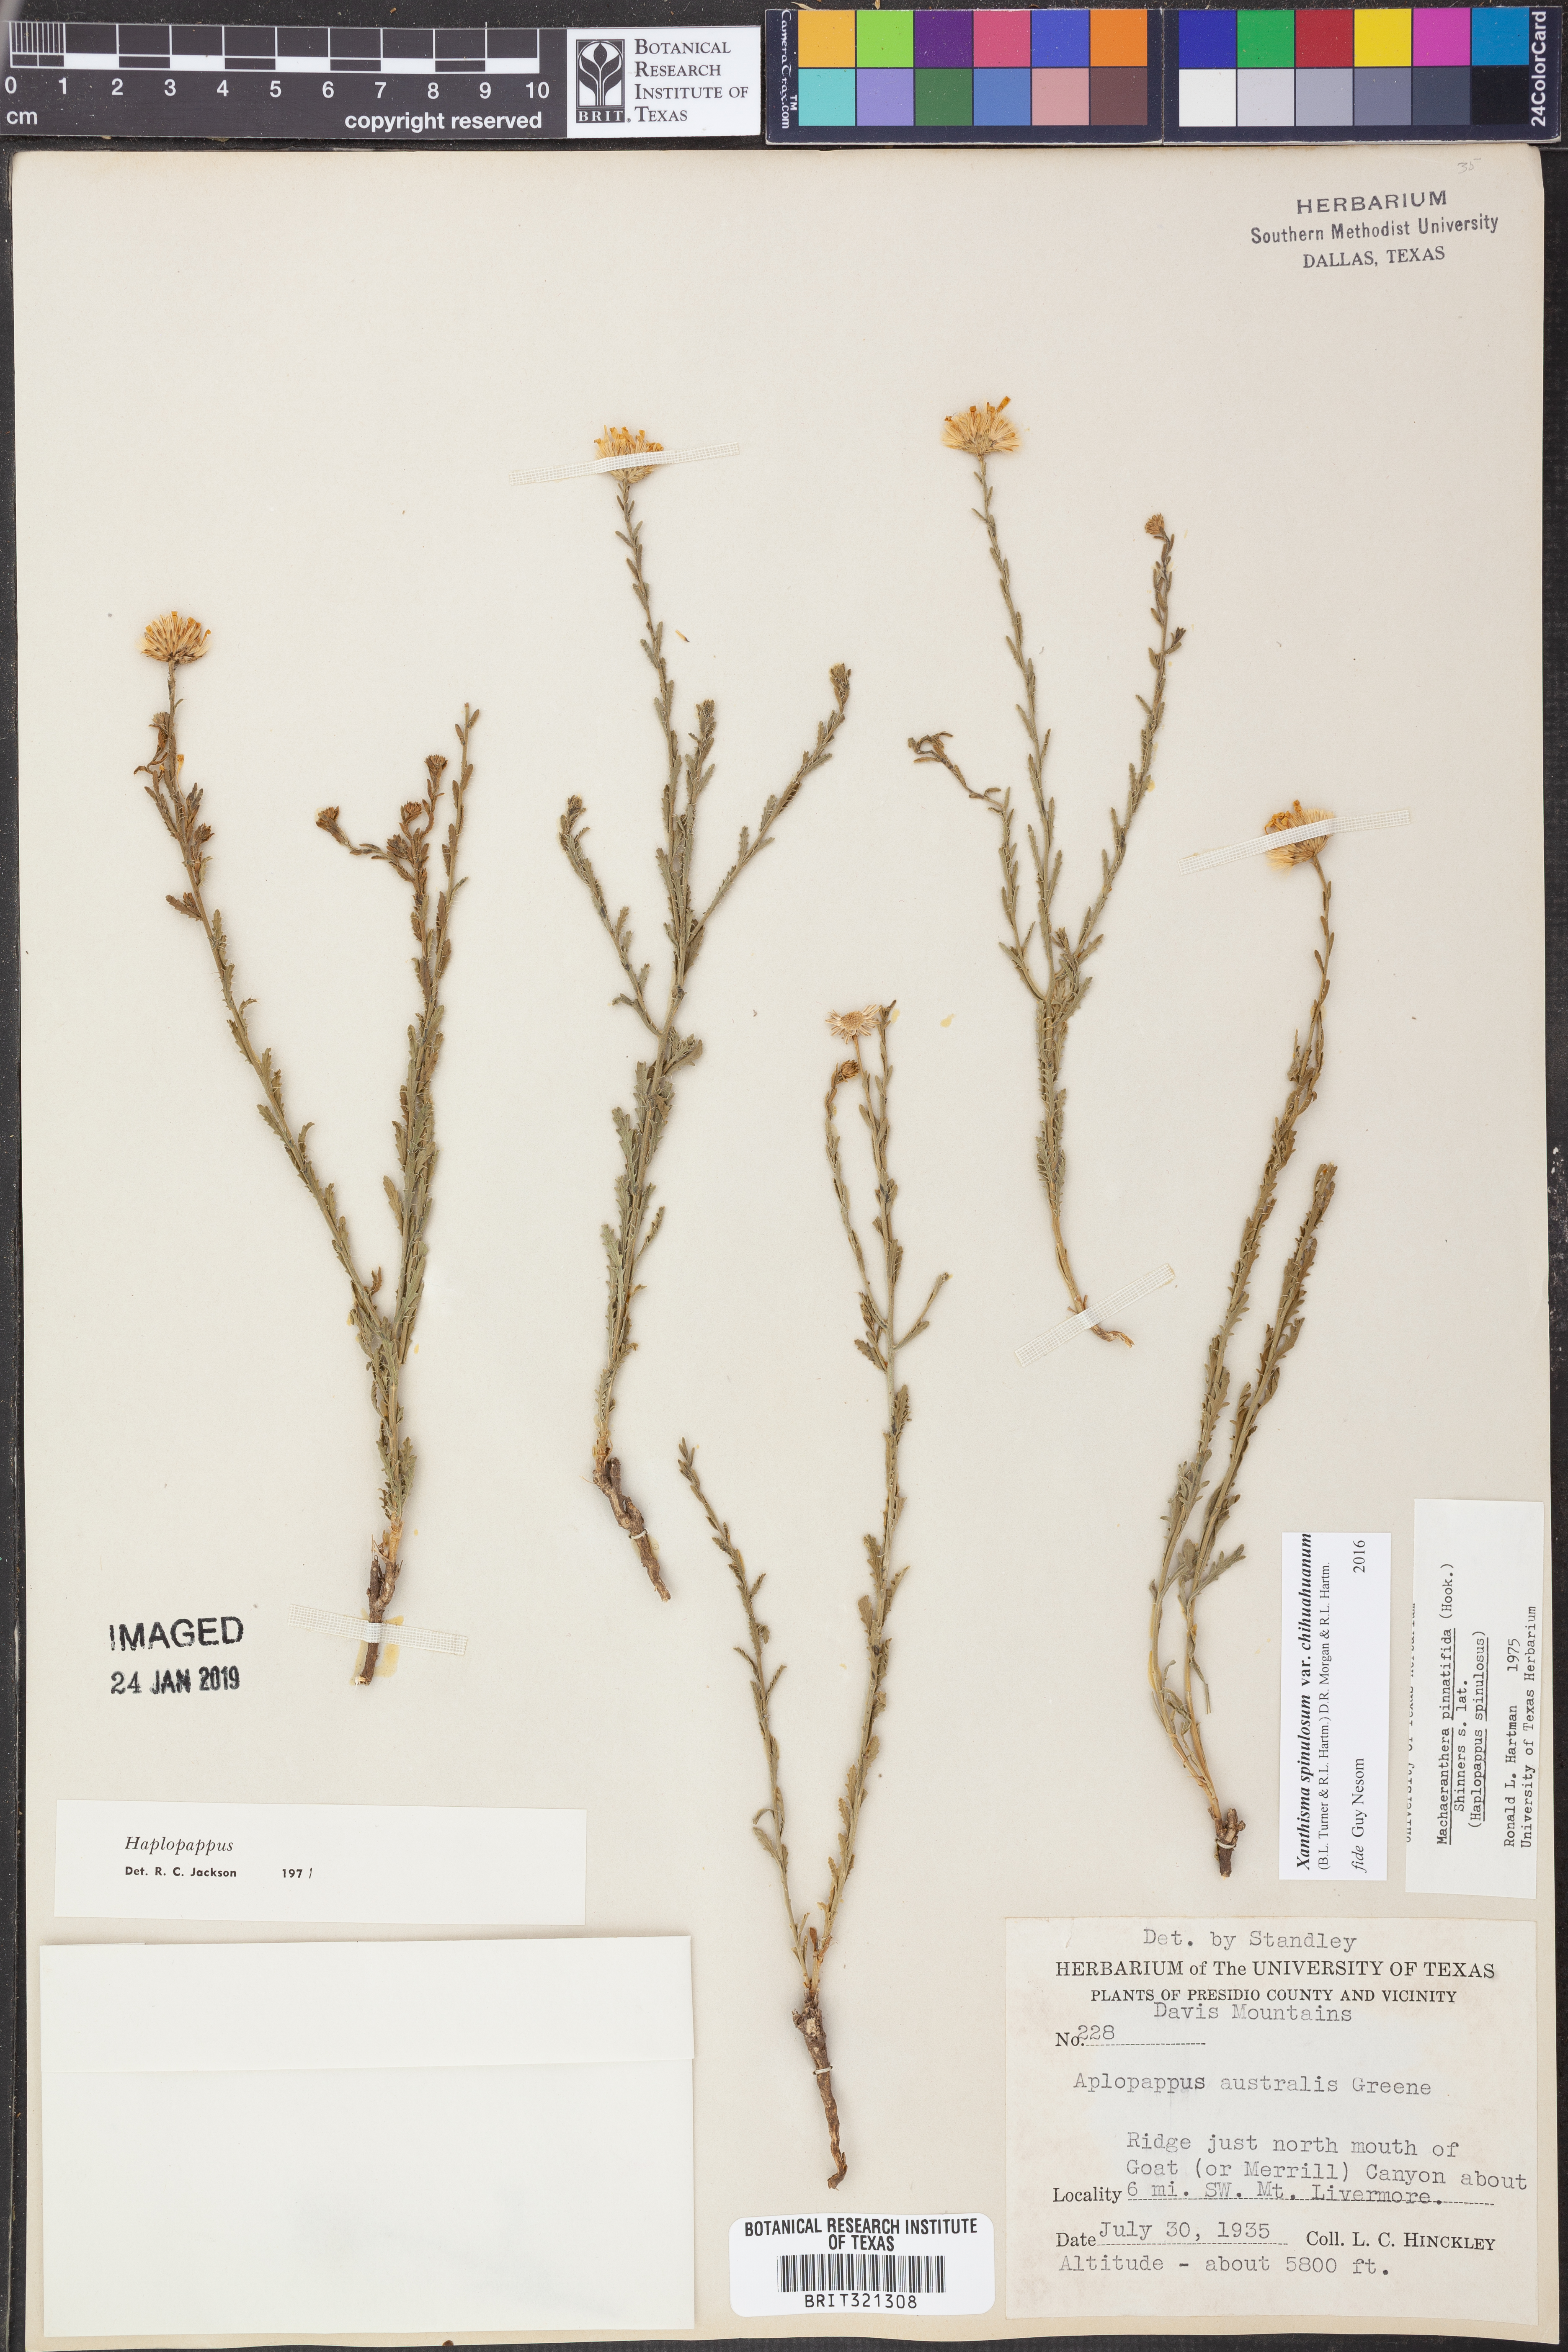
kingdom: Plantae
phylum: Tracheophyta
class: Magnoliopsida
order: Asterales
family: Asteraceae
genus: Xanthisma
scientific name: Xanthisma spinulosum
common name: Spiny goldenweed
